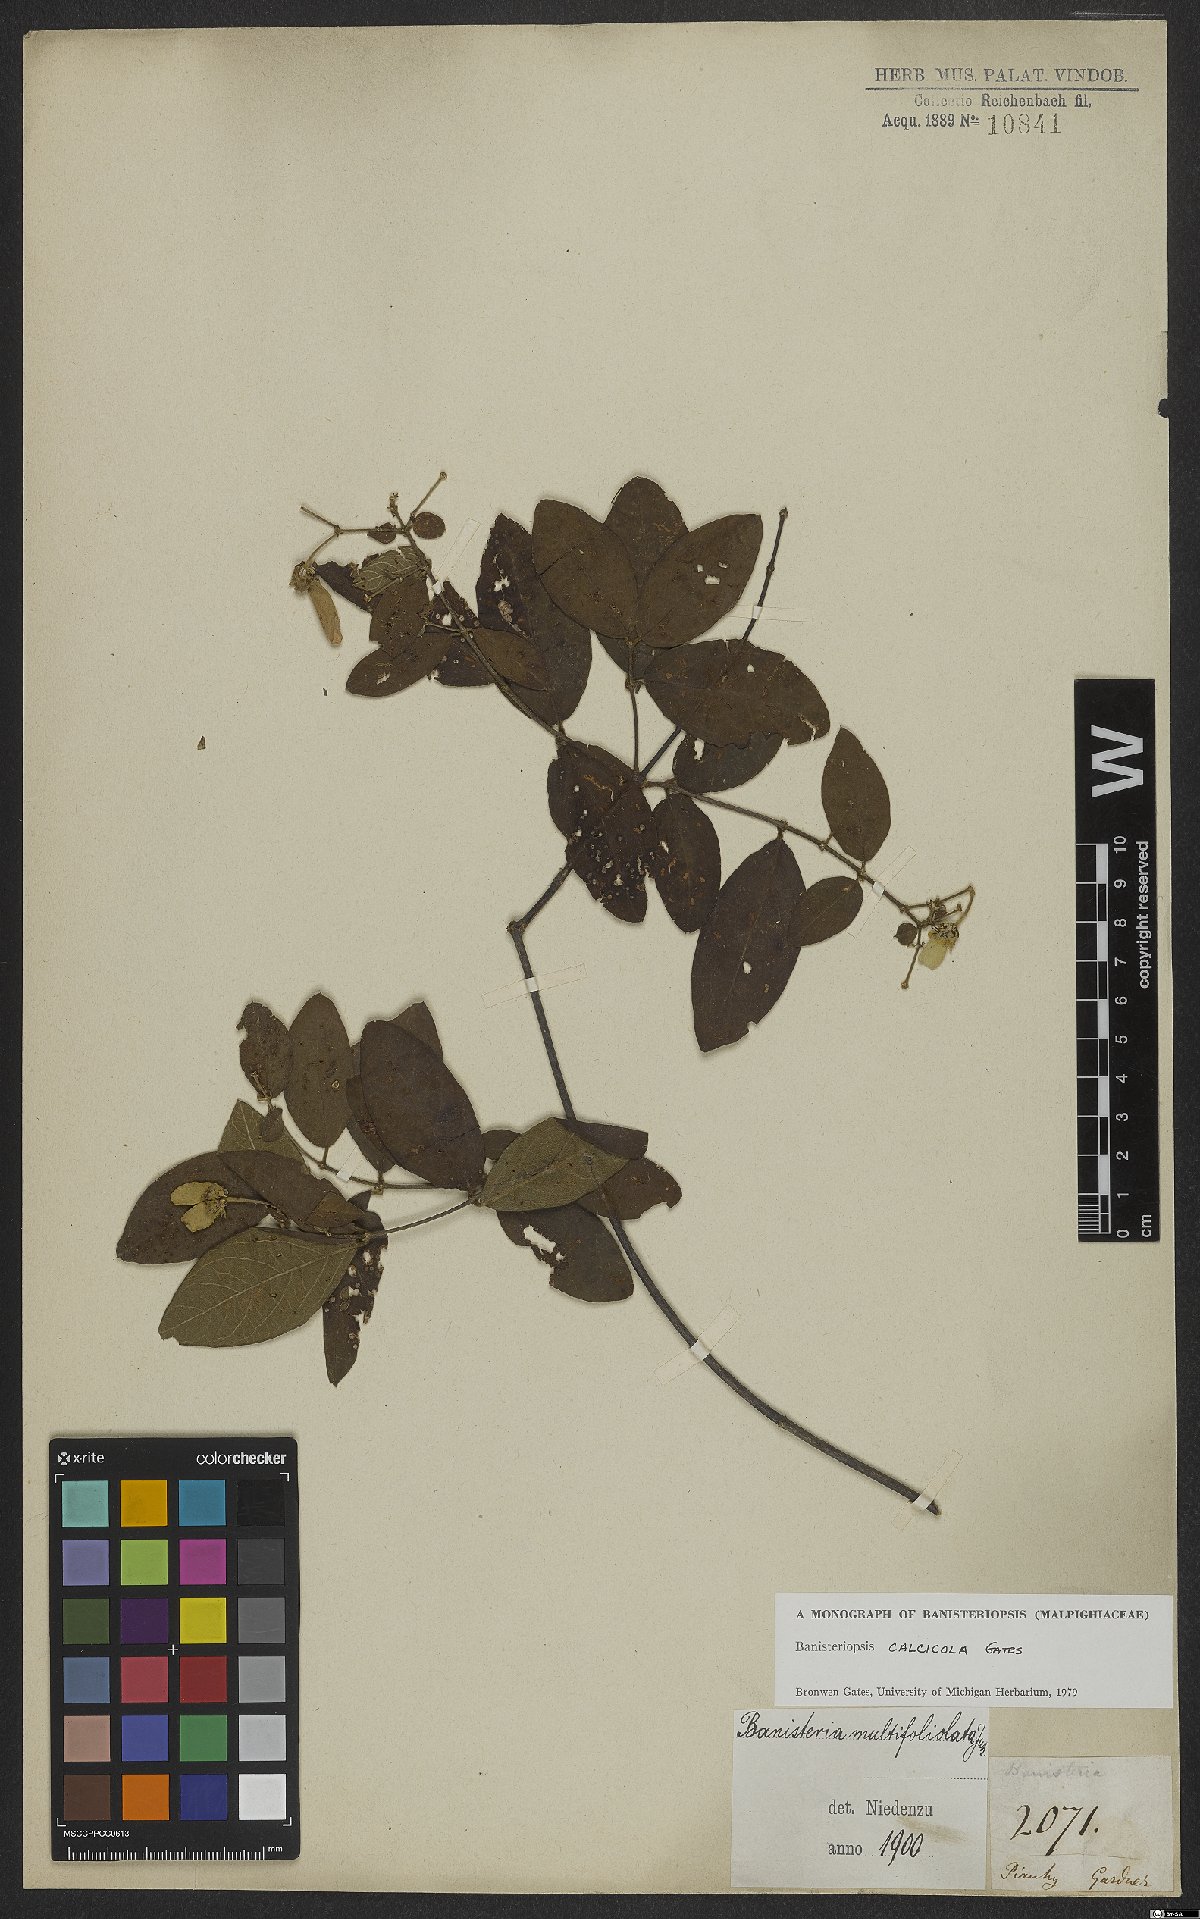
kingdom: Plantae
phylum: Tracheophyta
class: Magnoliopsida
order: Malpighiales
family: Malpighiaceae
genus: Banisteriopsis
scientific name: Banisteriopsis calcicola
